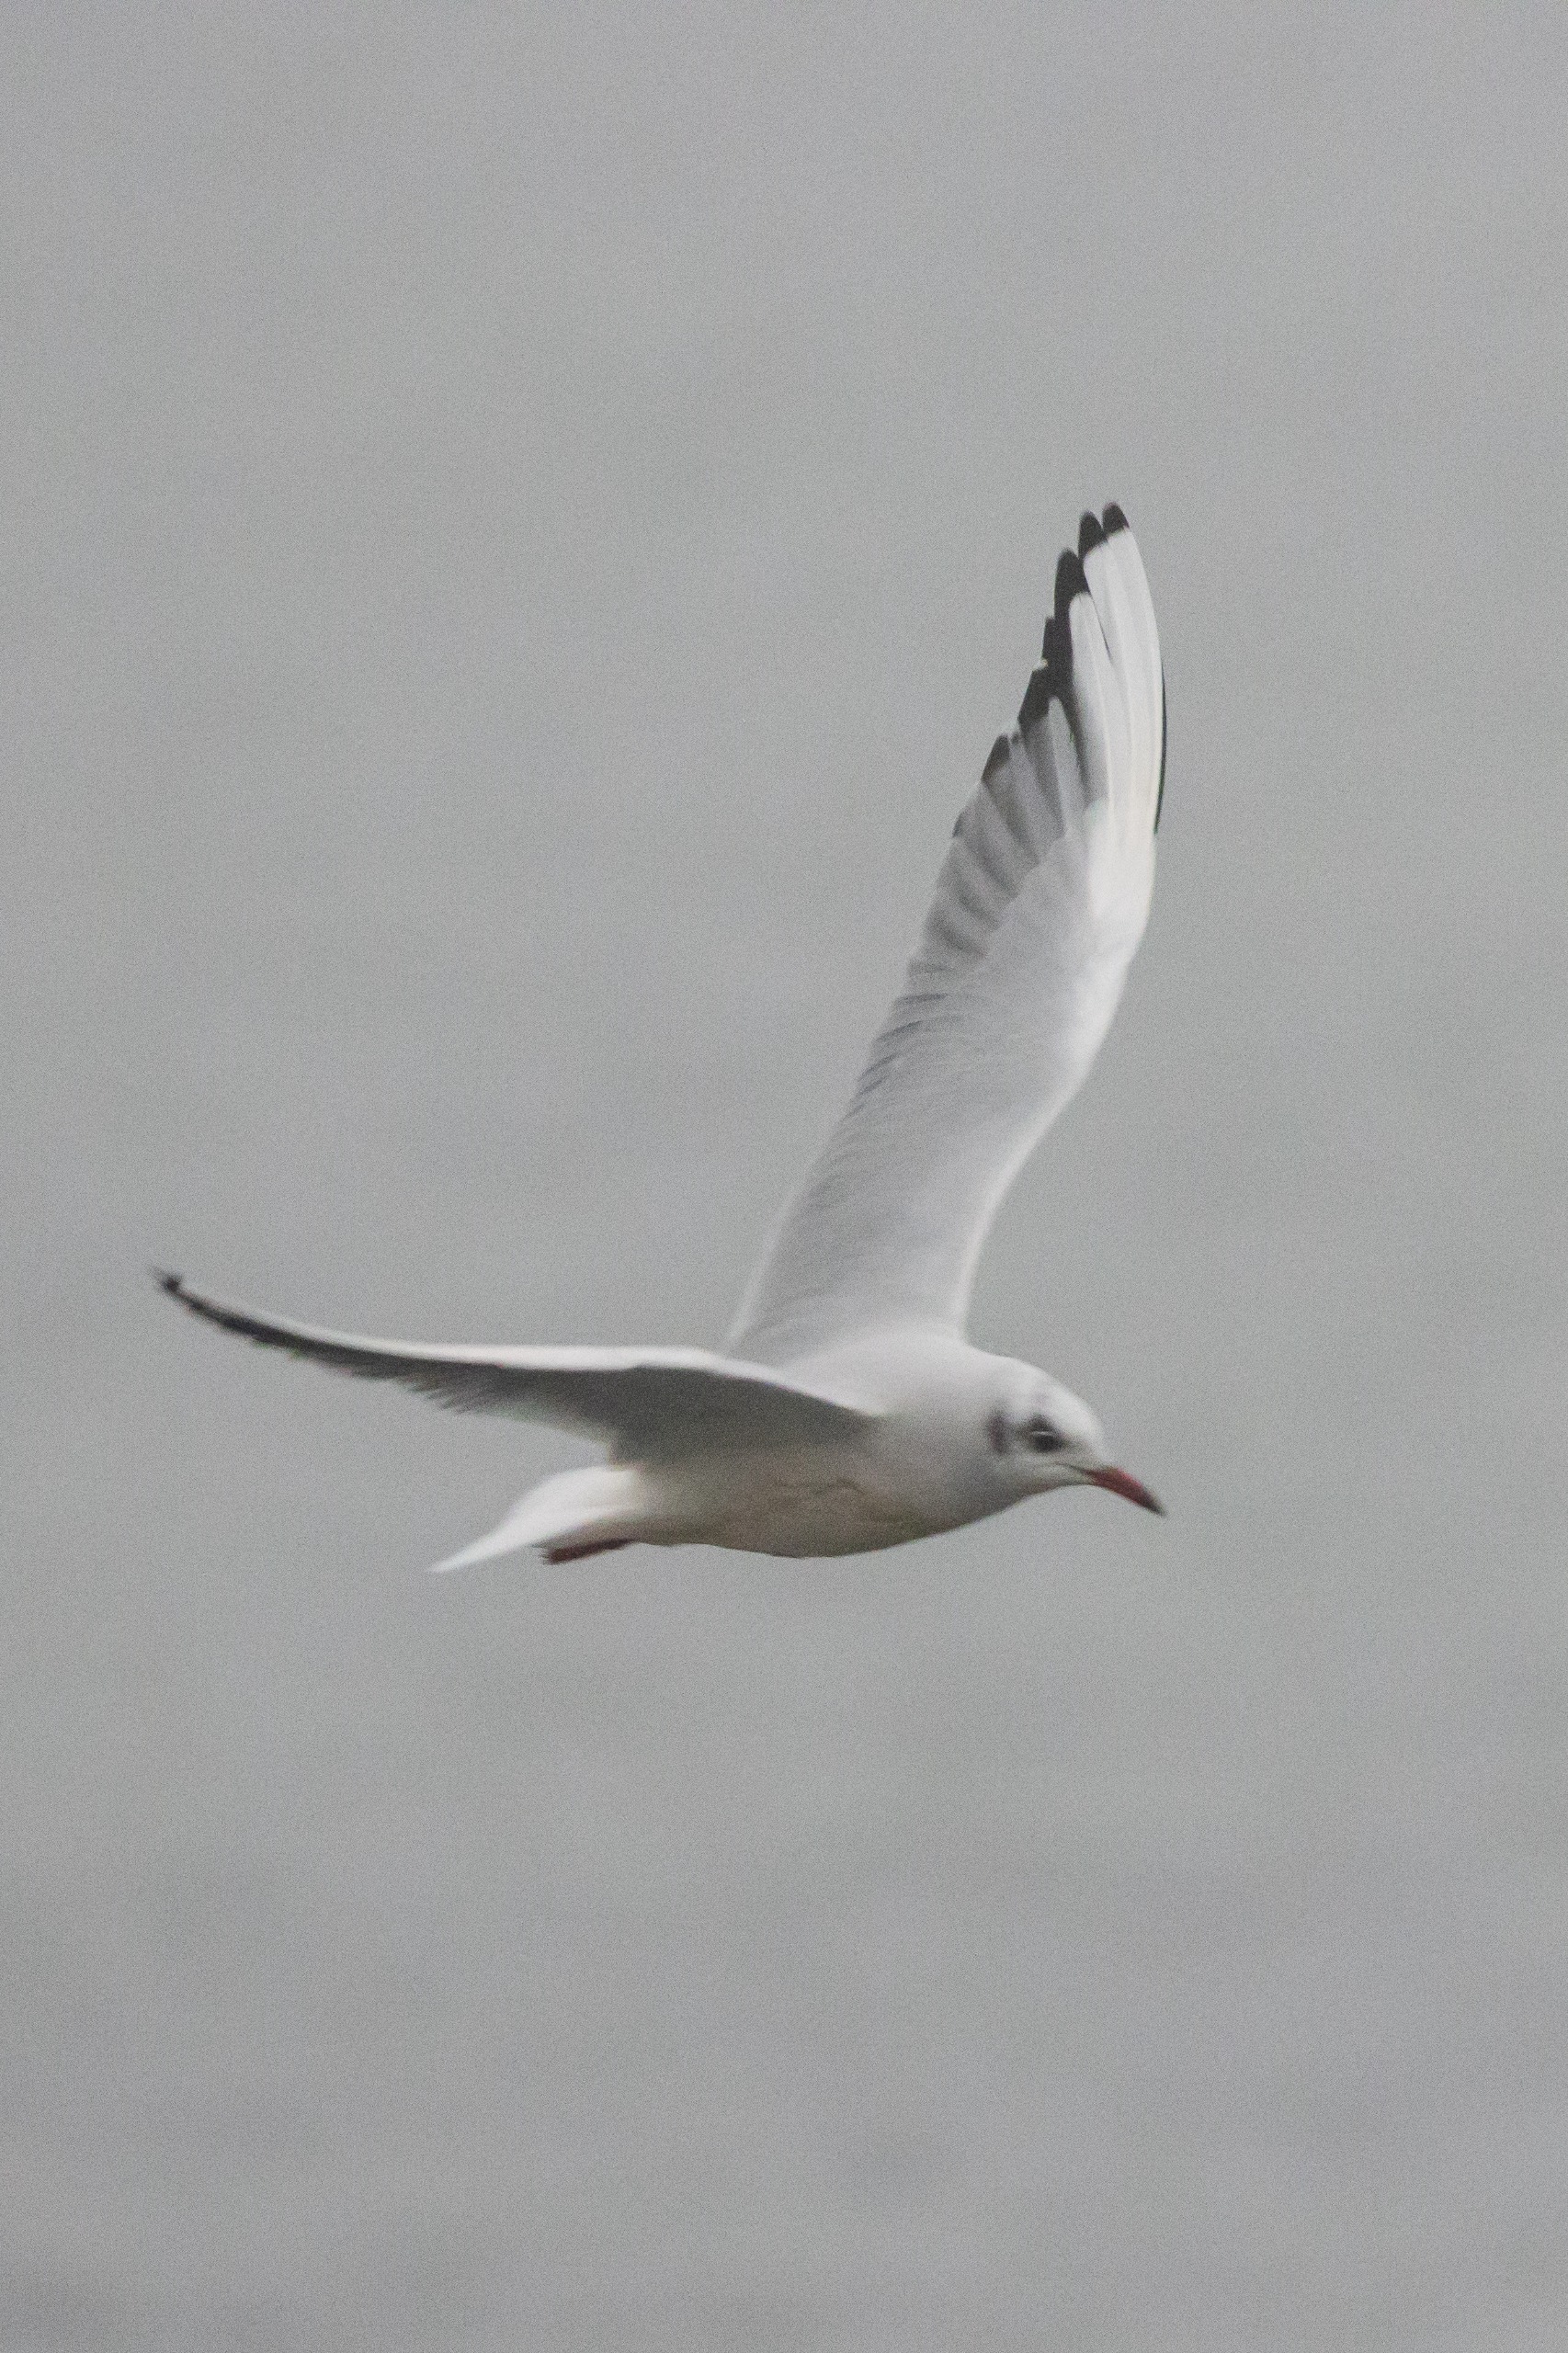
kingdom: Animalia
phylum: Chordata
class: Aves
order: Charadriiformes
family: Laridae
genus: Chroicocephalus
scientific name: Chroicocephalus ridibundus
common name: Hættemåge
